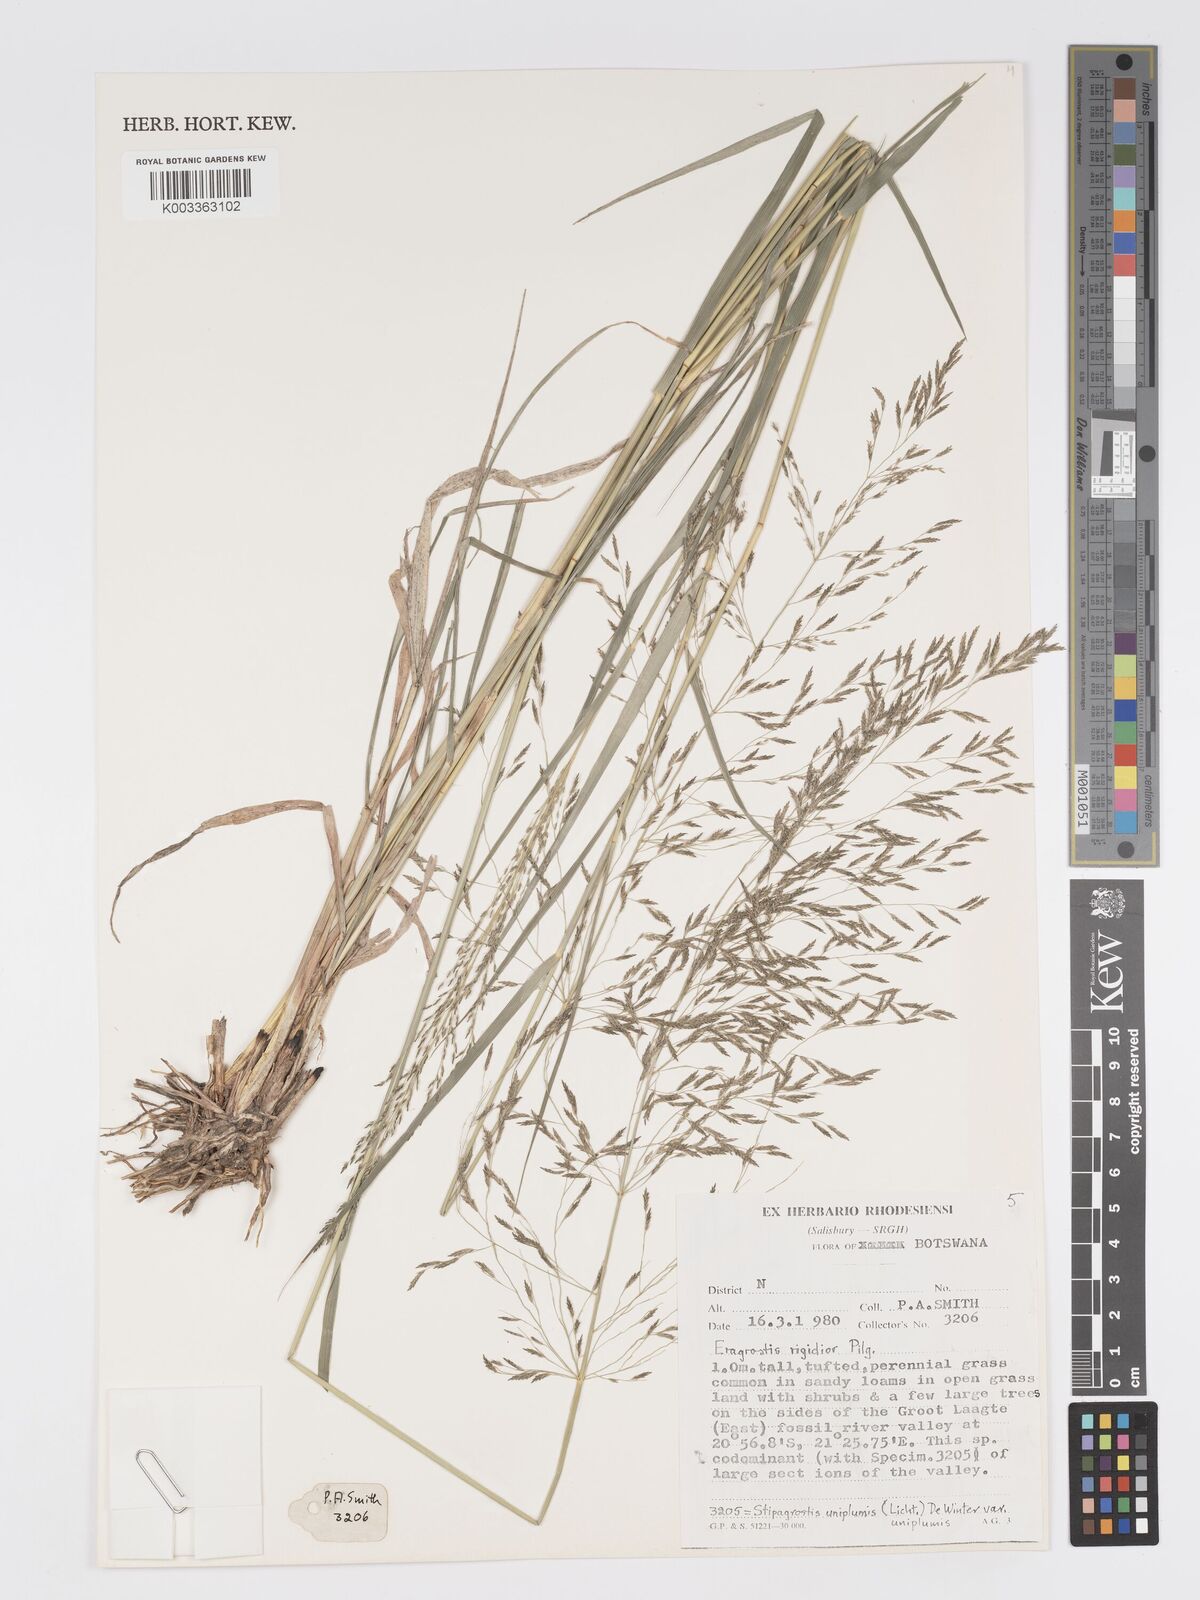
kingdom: Plantae
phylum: Tracheophyta
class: Liliopsida
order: Poales
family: Poaceae
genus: Eragrostis
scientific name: Eragrostis cylindriflora
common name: Cylinderflower lovegrass
